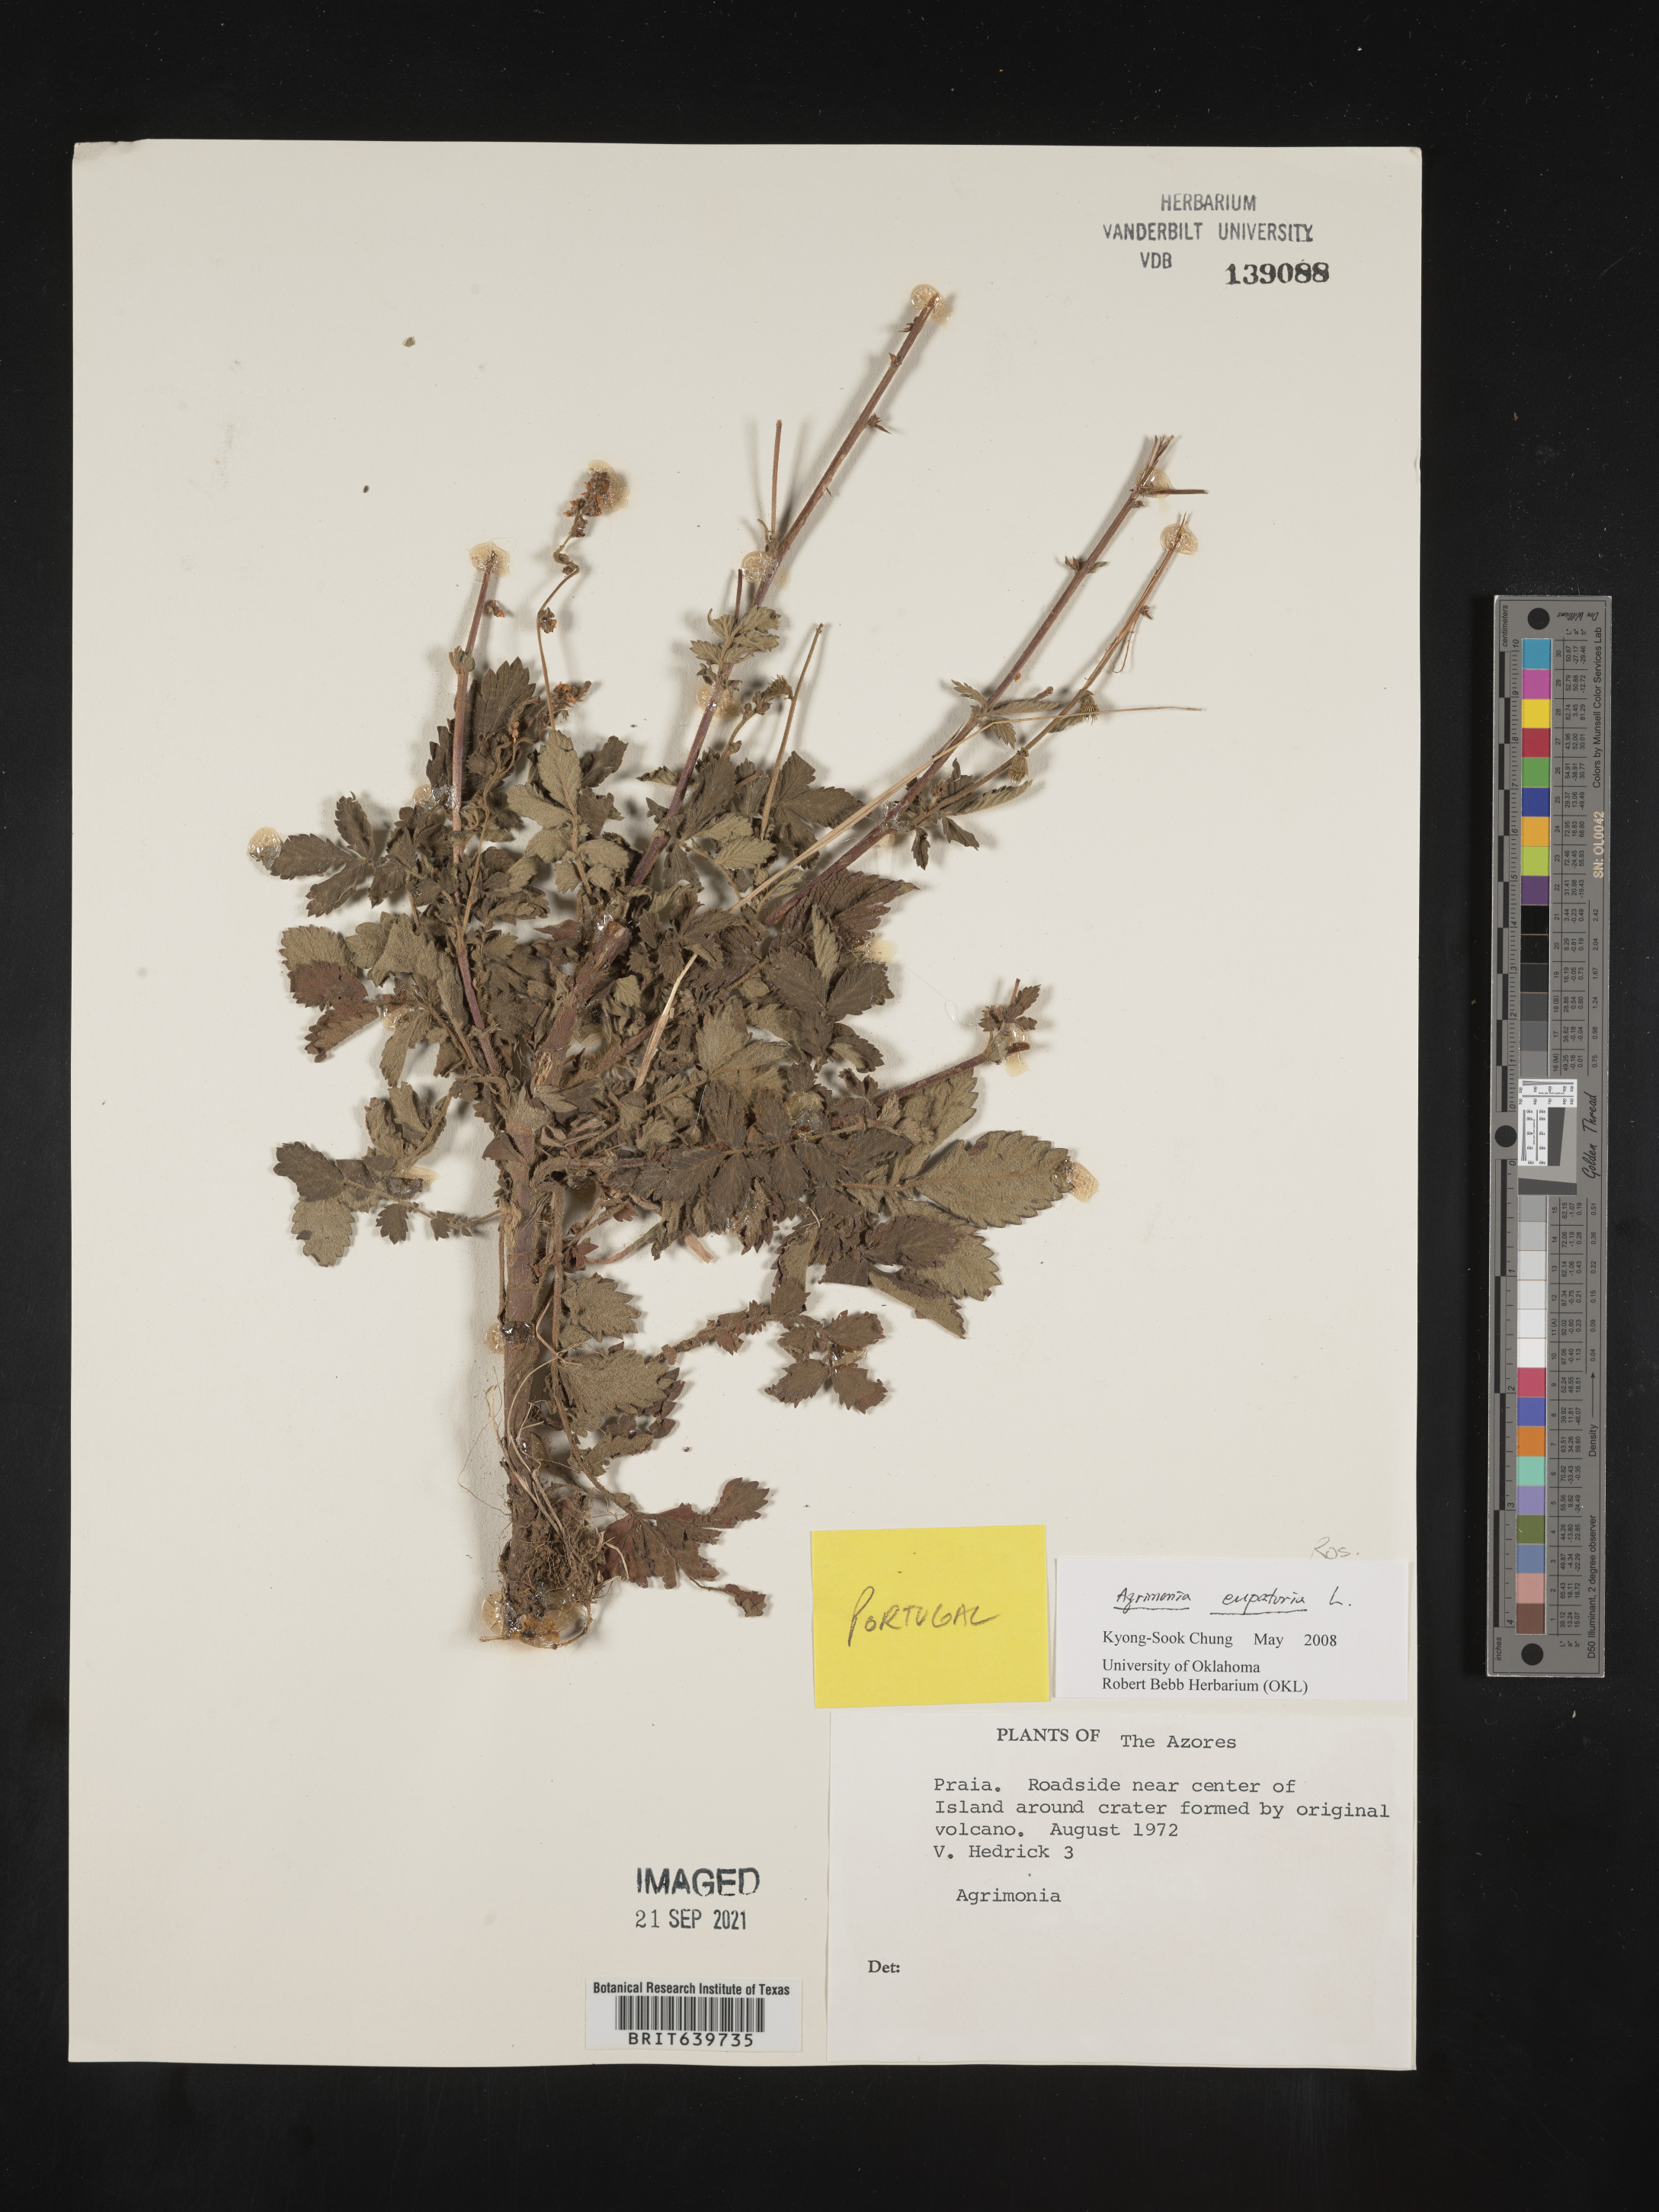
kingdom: Plantae
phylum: Tracheophyta
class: Magnoliopsida
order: Rosales
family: Rosaceae
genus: Agrimonia
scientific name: Agrimonia
